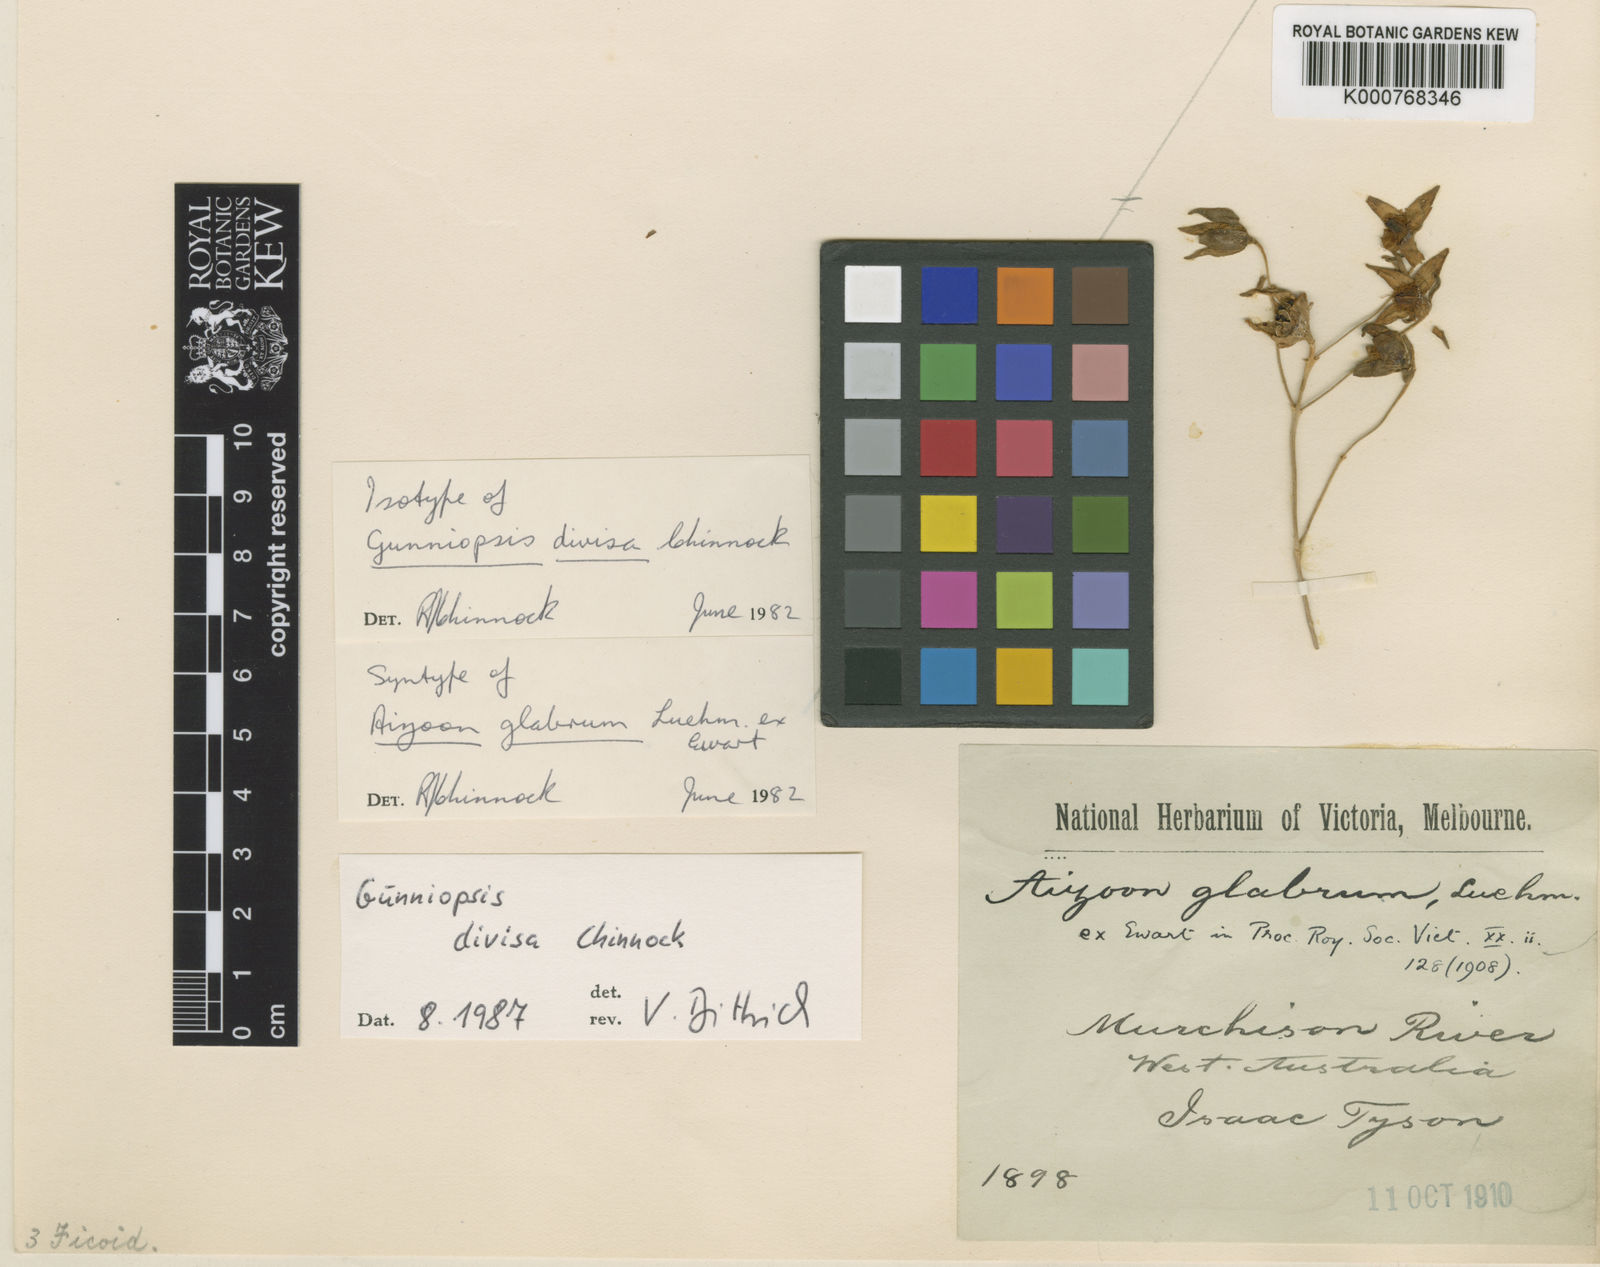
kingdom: Plantae
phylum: Tracheophyta
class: Magnoliopsida
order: Caryophyllales
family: Aizoaceae
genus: Gunniopsis
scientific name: Gunniopsis glabra
